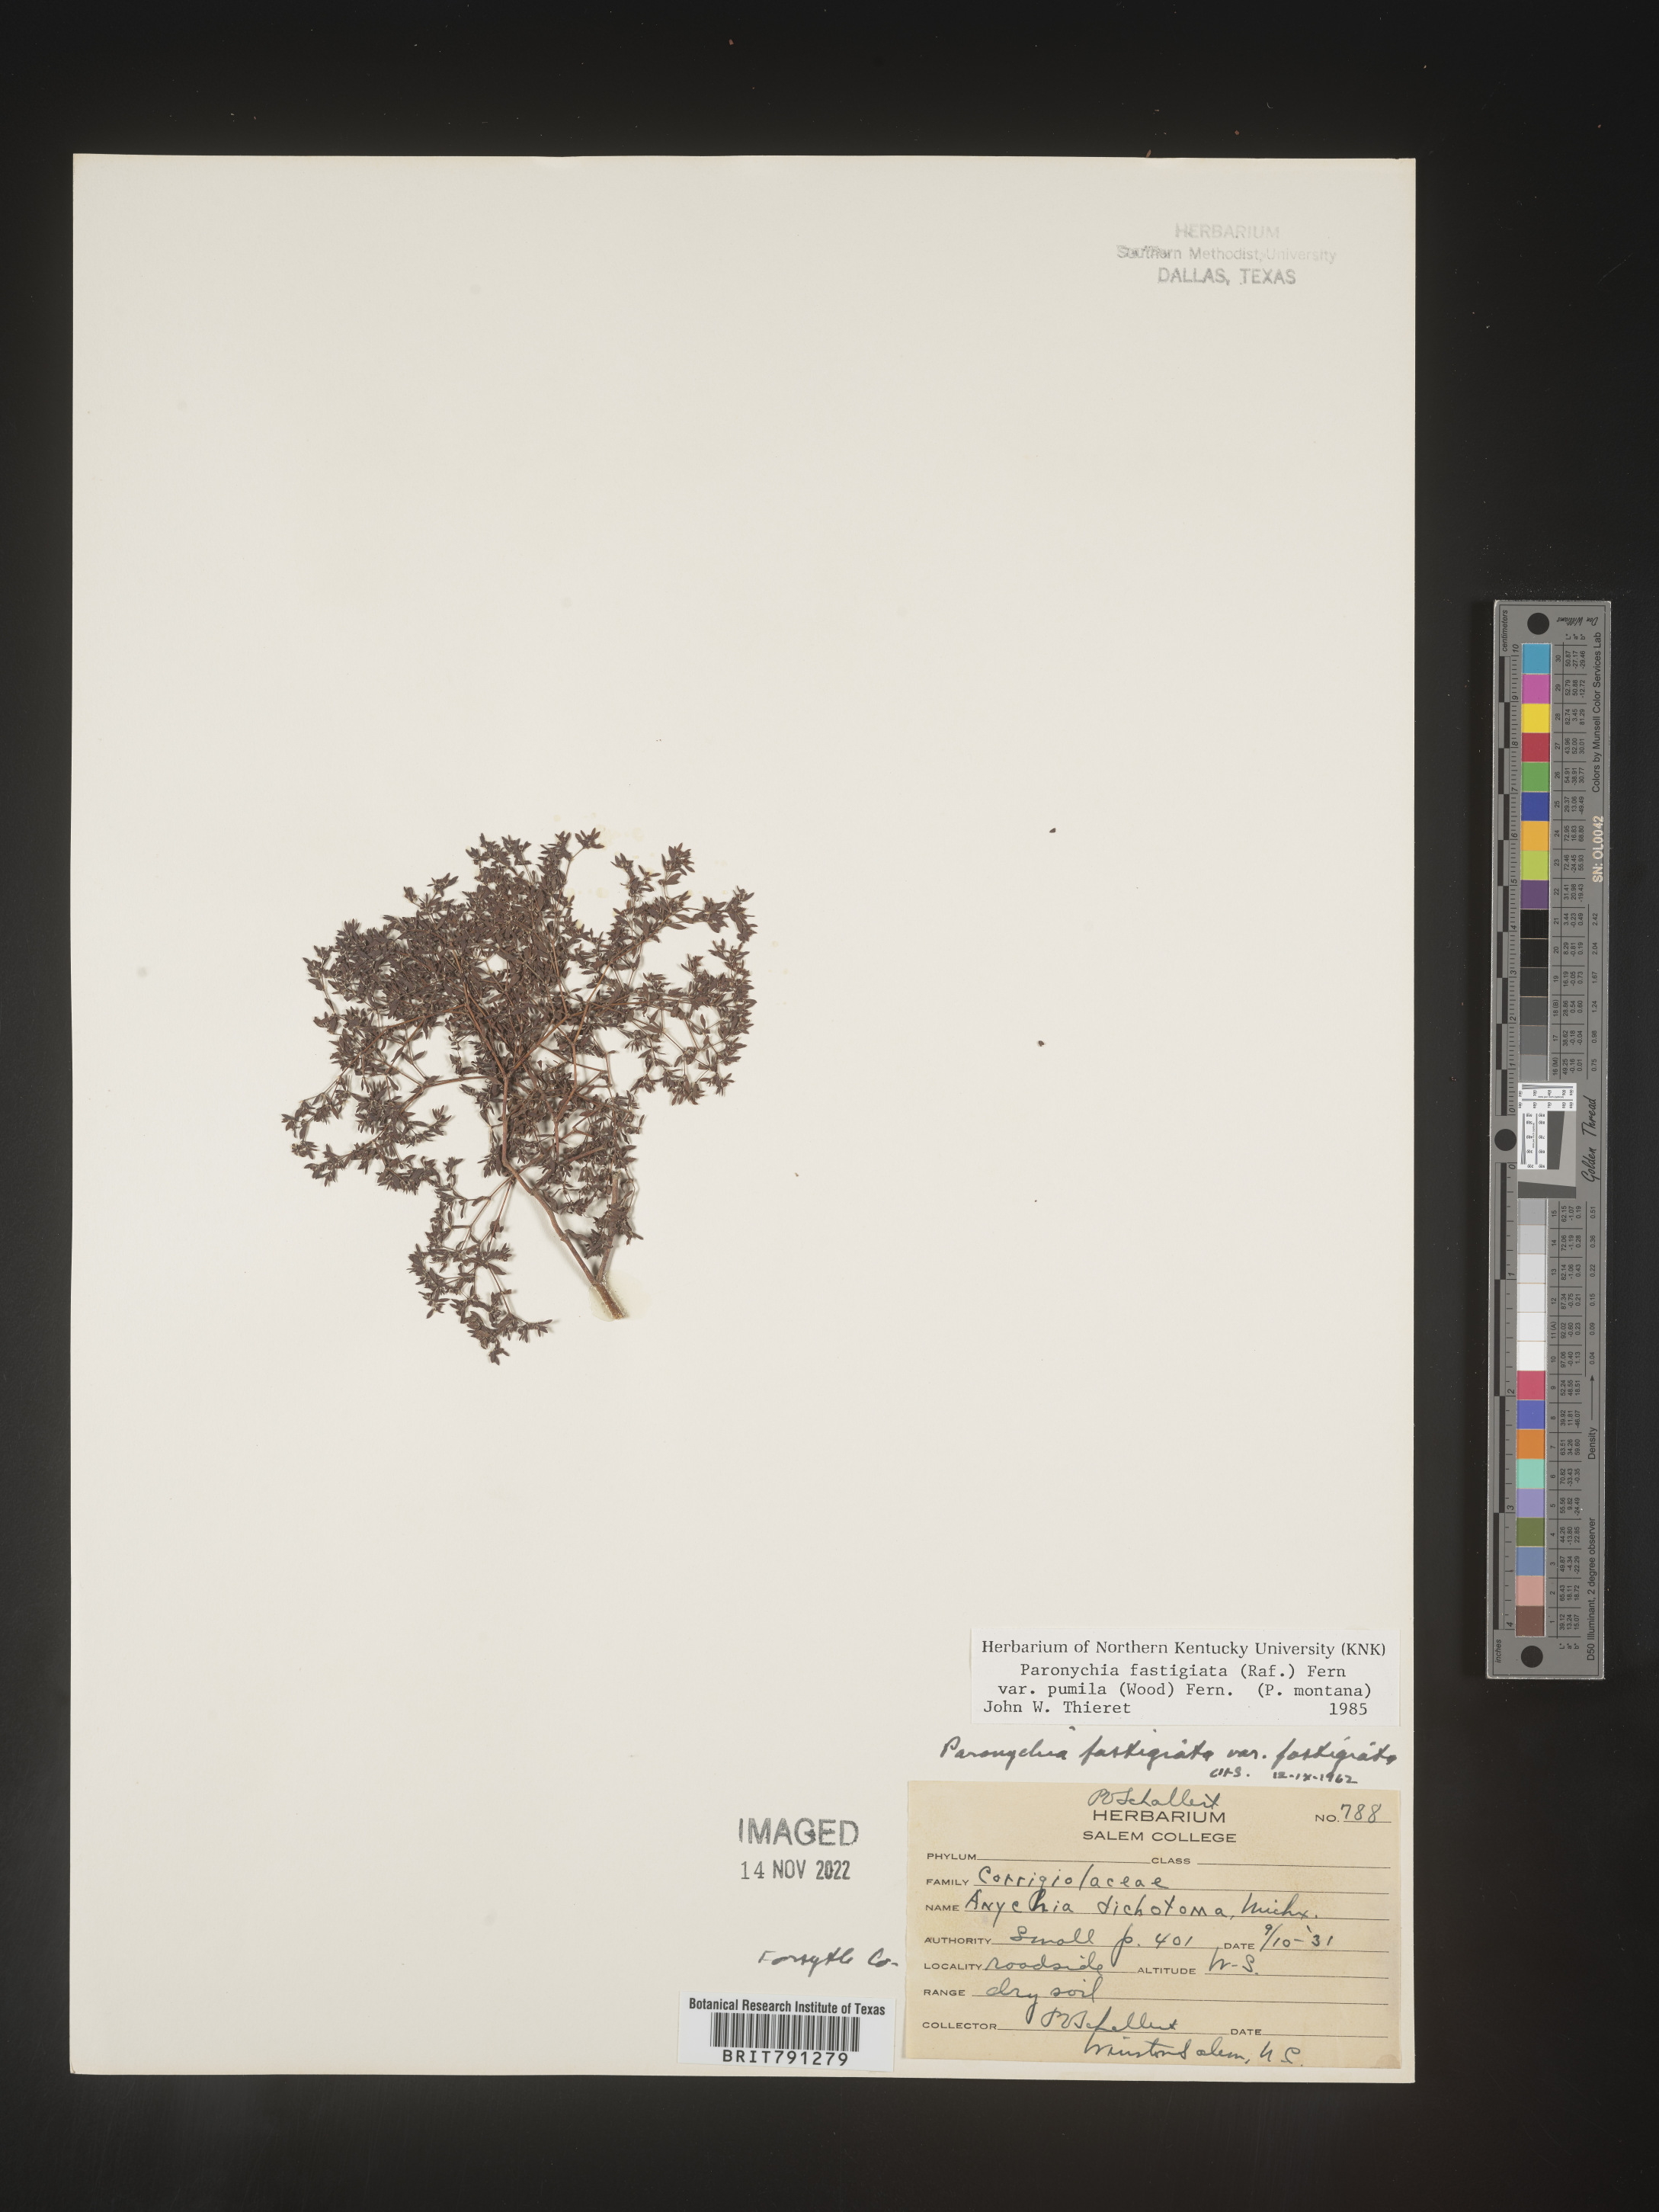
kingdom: Plantae
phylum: Tracheophyta
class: Magnoliopsida
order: Caryophyllales
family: Caryophyllaceae
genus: Paronychia
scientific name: Paronychia fastigiata
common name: Branching forked whitlow-wort
